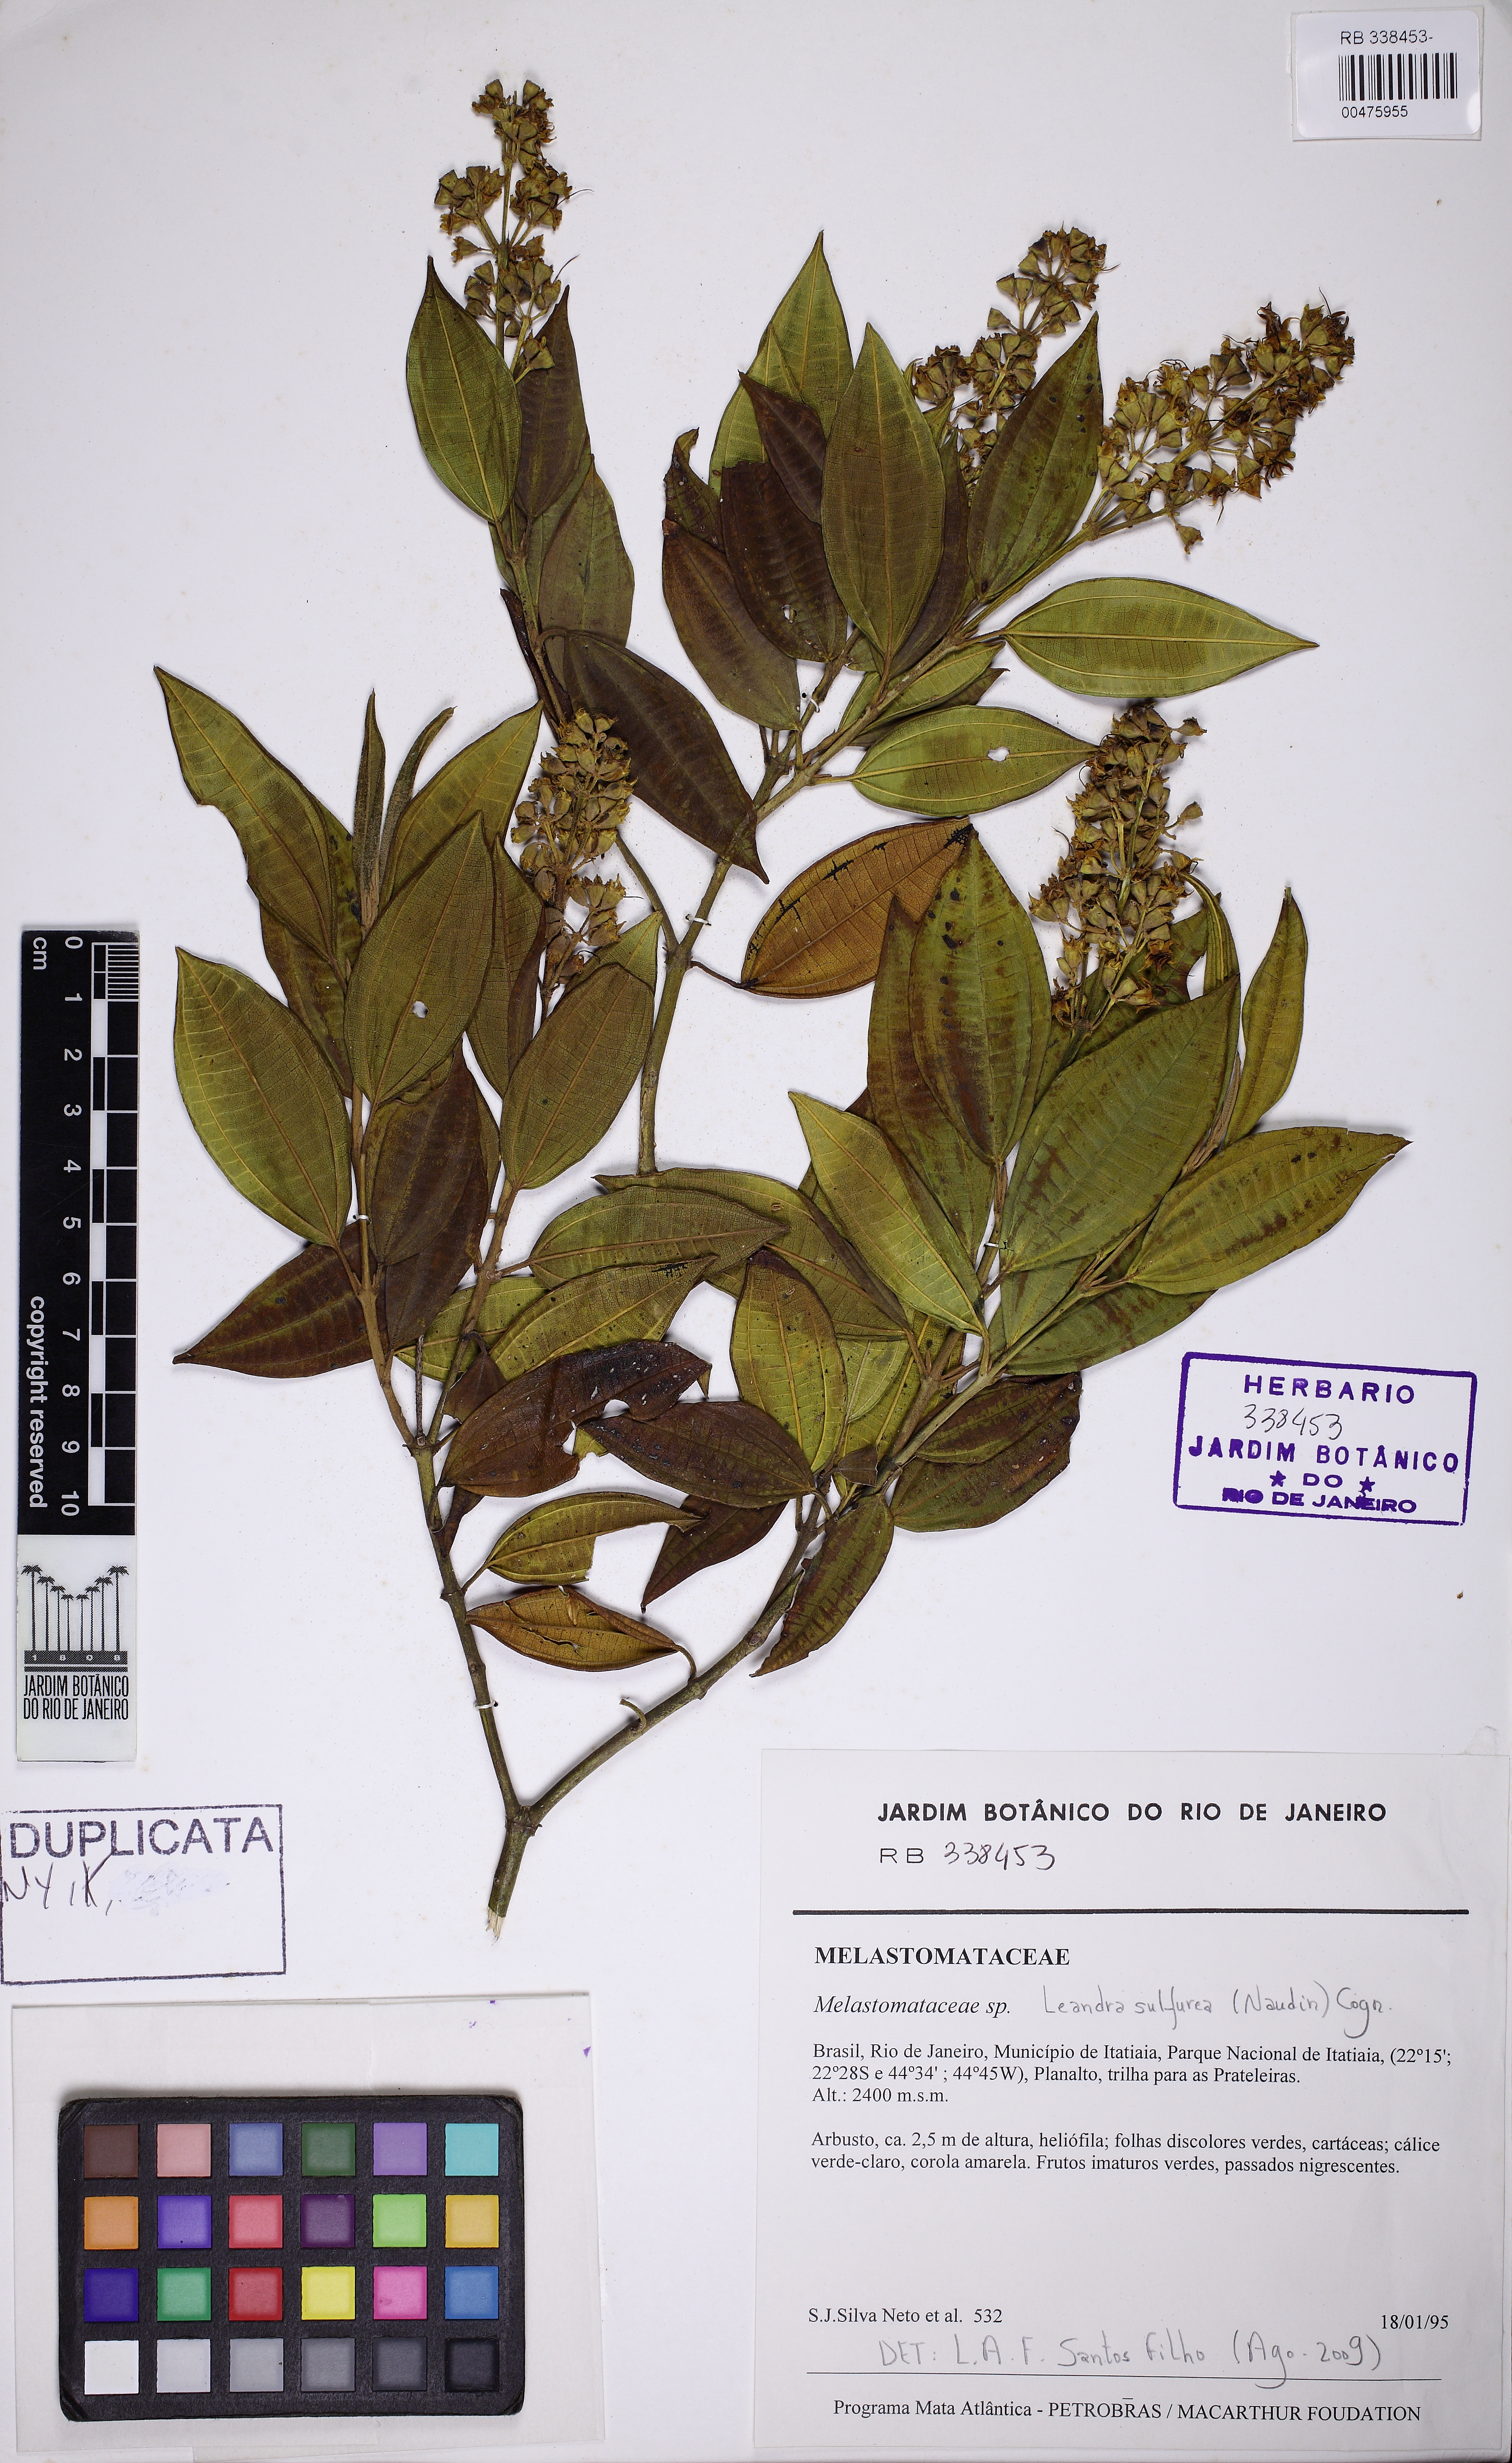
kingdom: Plantae
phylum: Tracheophyta
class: Magnoliopsida
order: Myrtales
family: Melastomataceae
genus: Miconia
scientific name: Miconia sulfurea
